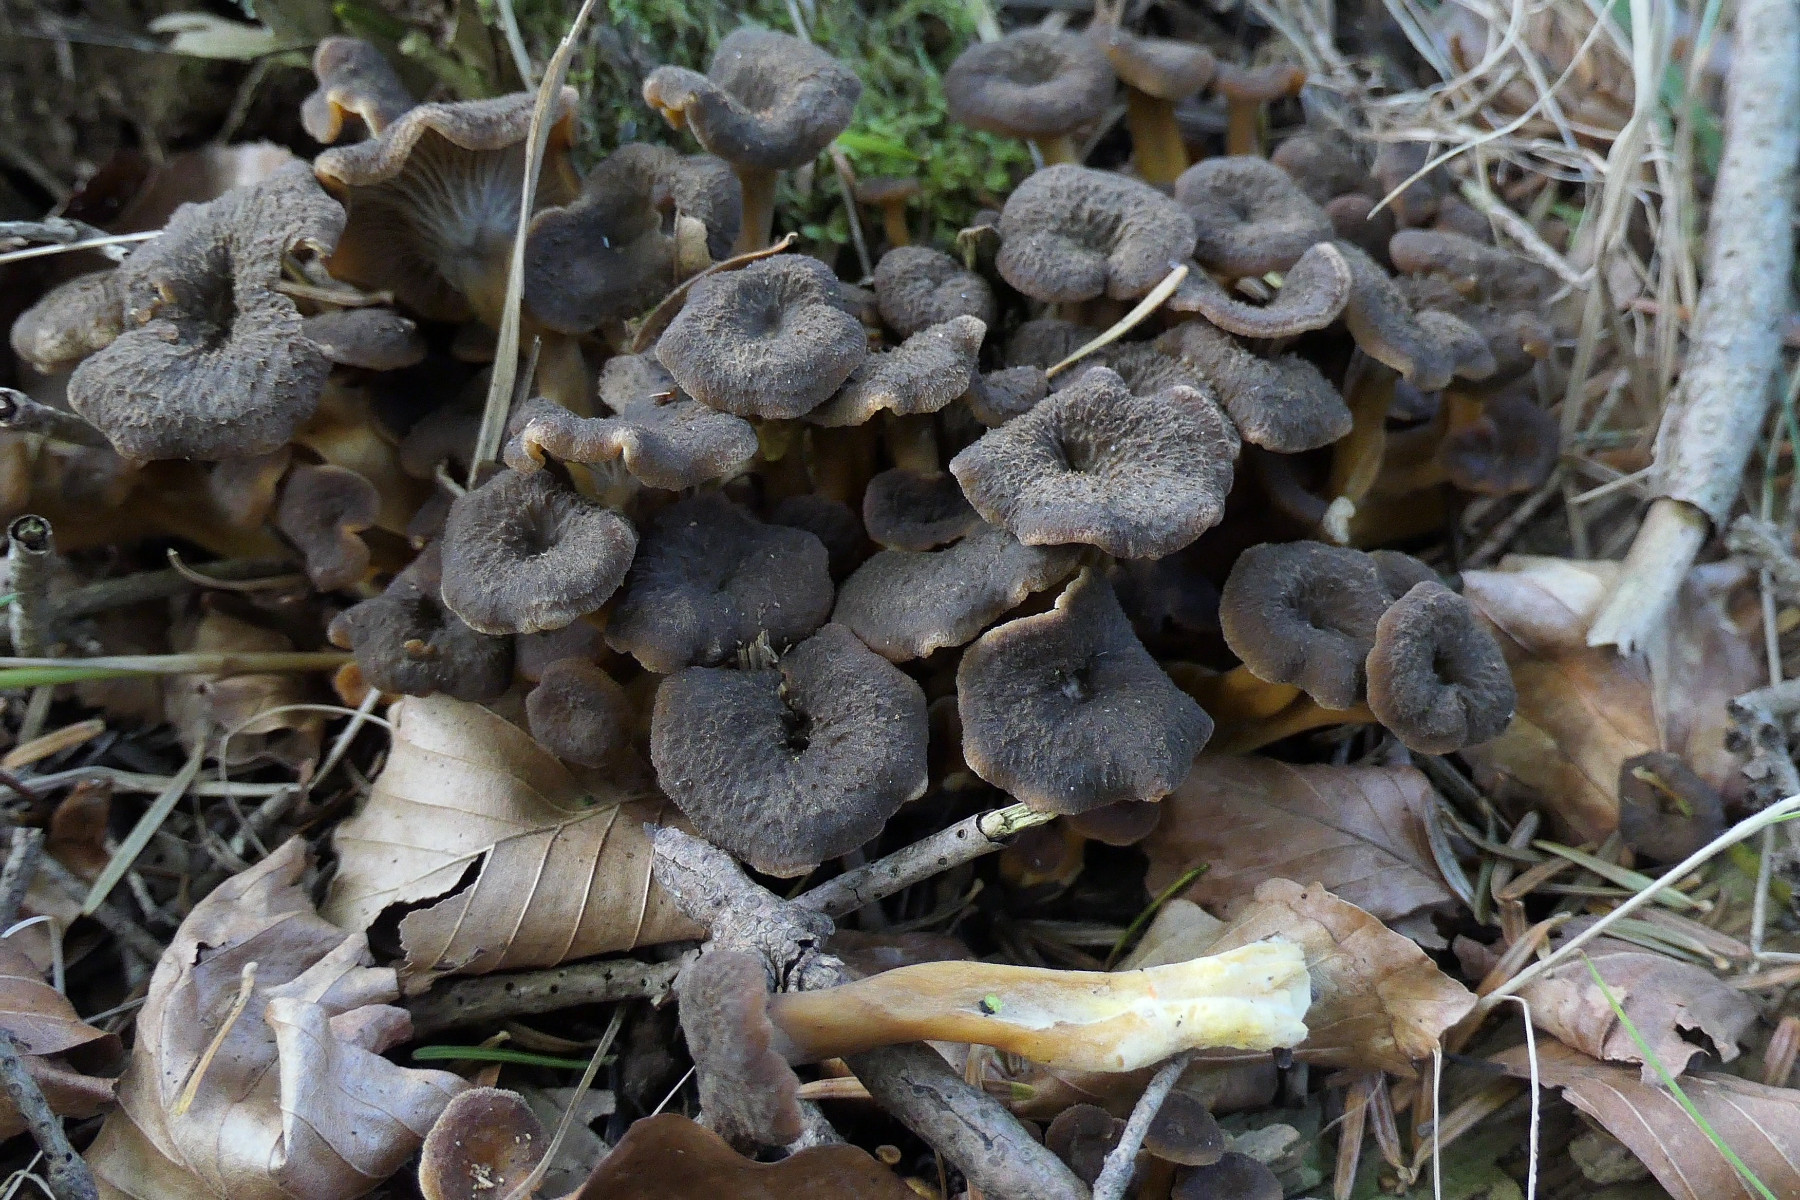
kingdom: Fungi
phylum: Basidiomycota
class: Agaricomycetes
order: Cantharellales
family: Hydnaceae
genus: Craterellus
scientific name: Craterellus tubaeformis
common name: tragt-kantarel
